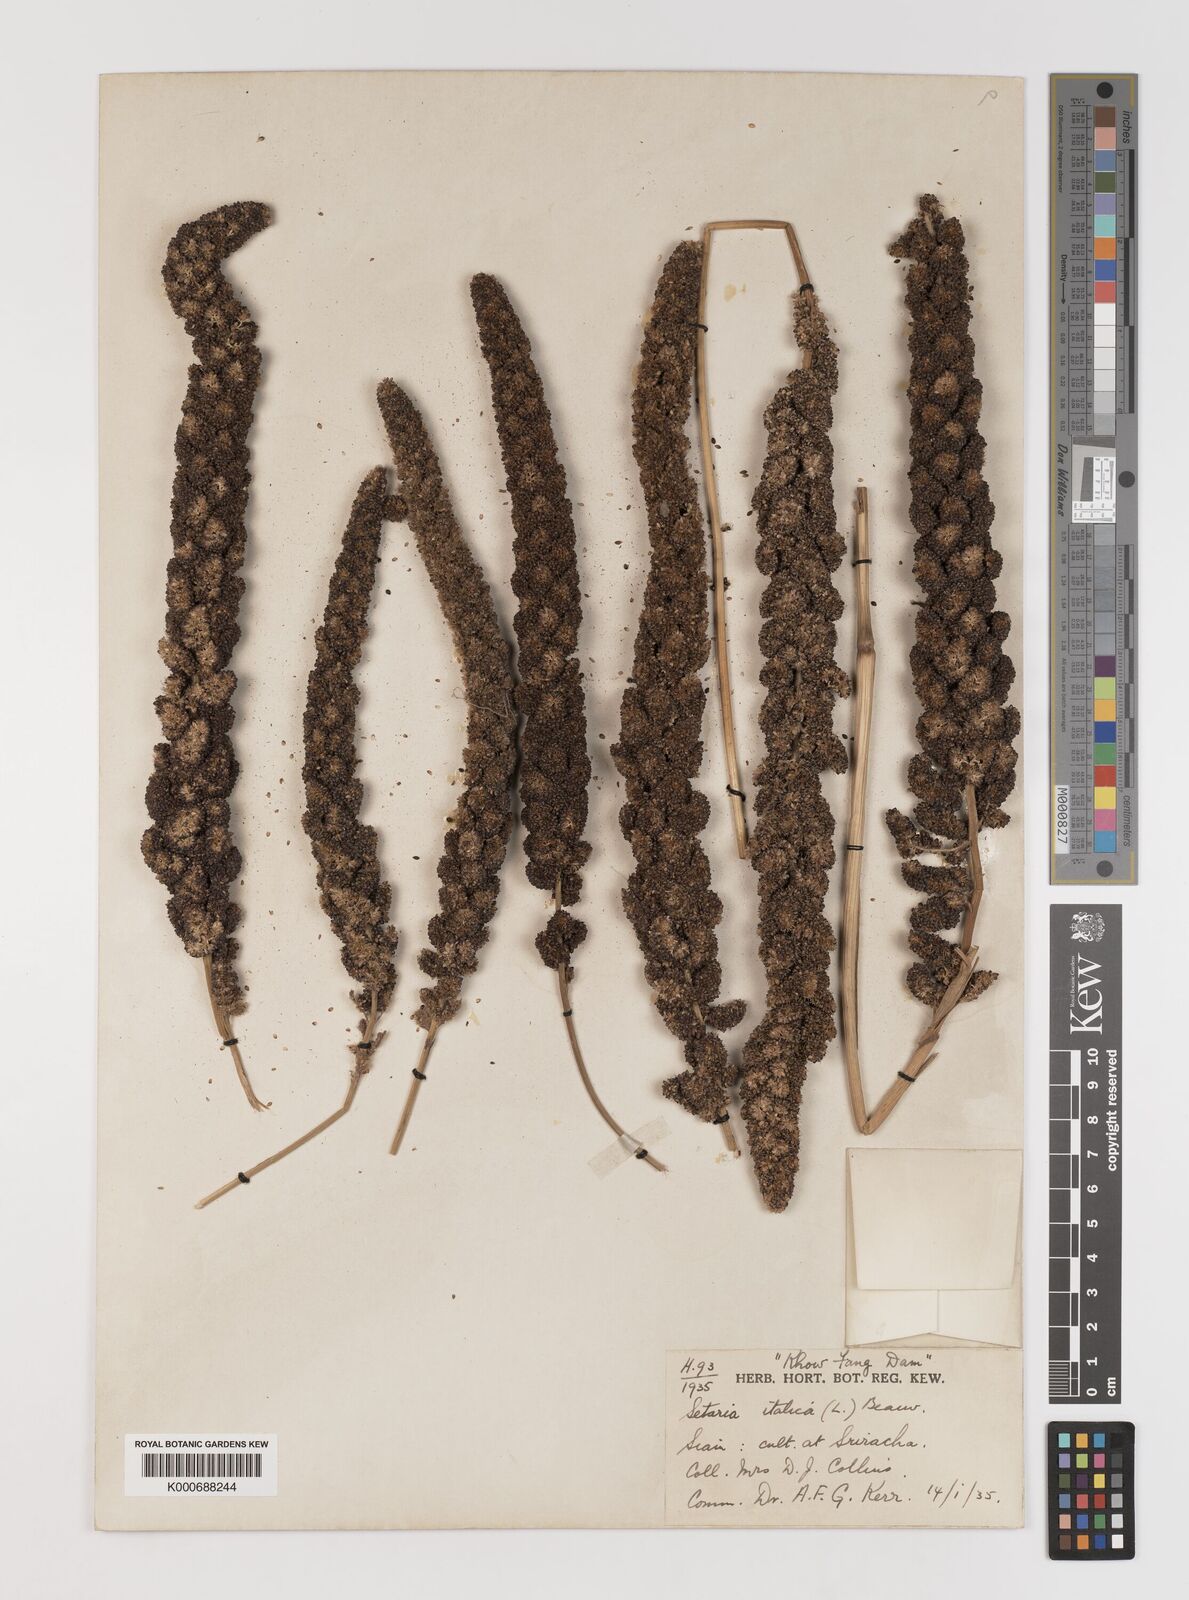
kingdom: Plantae
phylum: Tracheophyta
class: Liliopsida
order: Poales
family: Poaceae
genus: Setaria
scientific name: Setaria italica
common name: Foxtail bristle-grass
